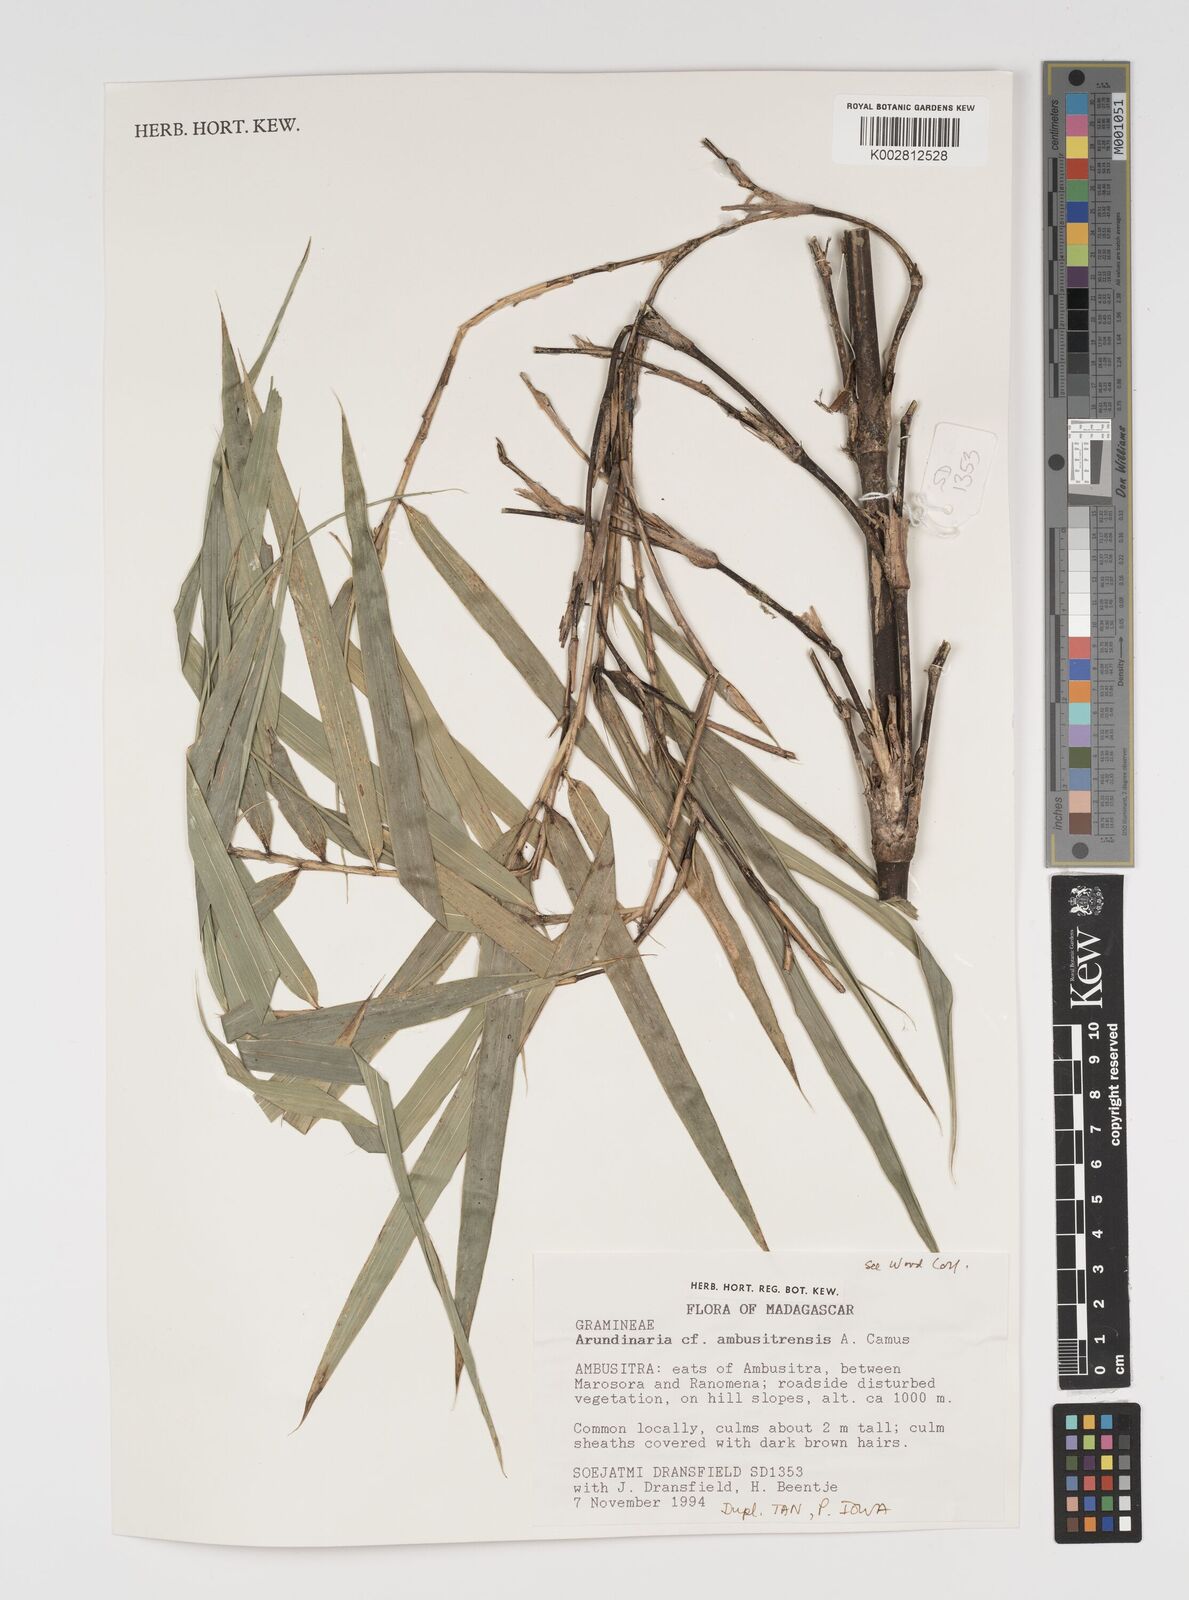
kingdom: Plantae
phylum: Tracheophyta
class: Liliopsida
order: Poales
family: Poaceae
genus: Arundinaria
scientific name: Arundinaria
